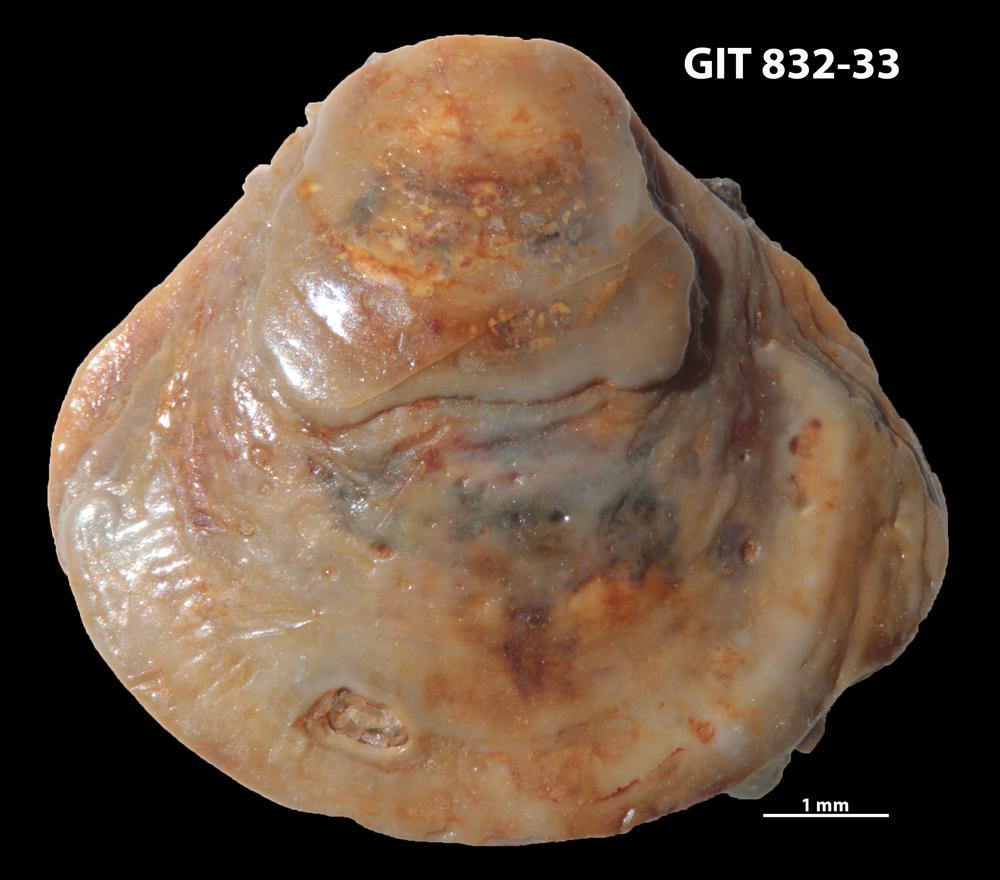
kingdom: Animalia
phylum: Brachiopoda
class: Lingulata
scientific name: Lingulata
